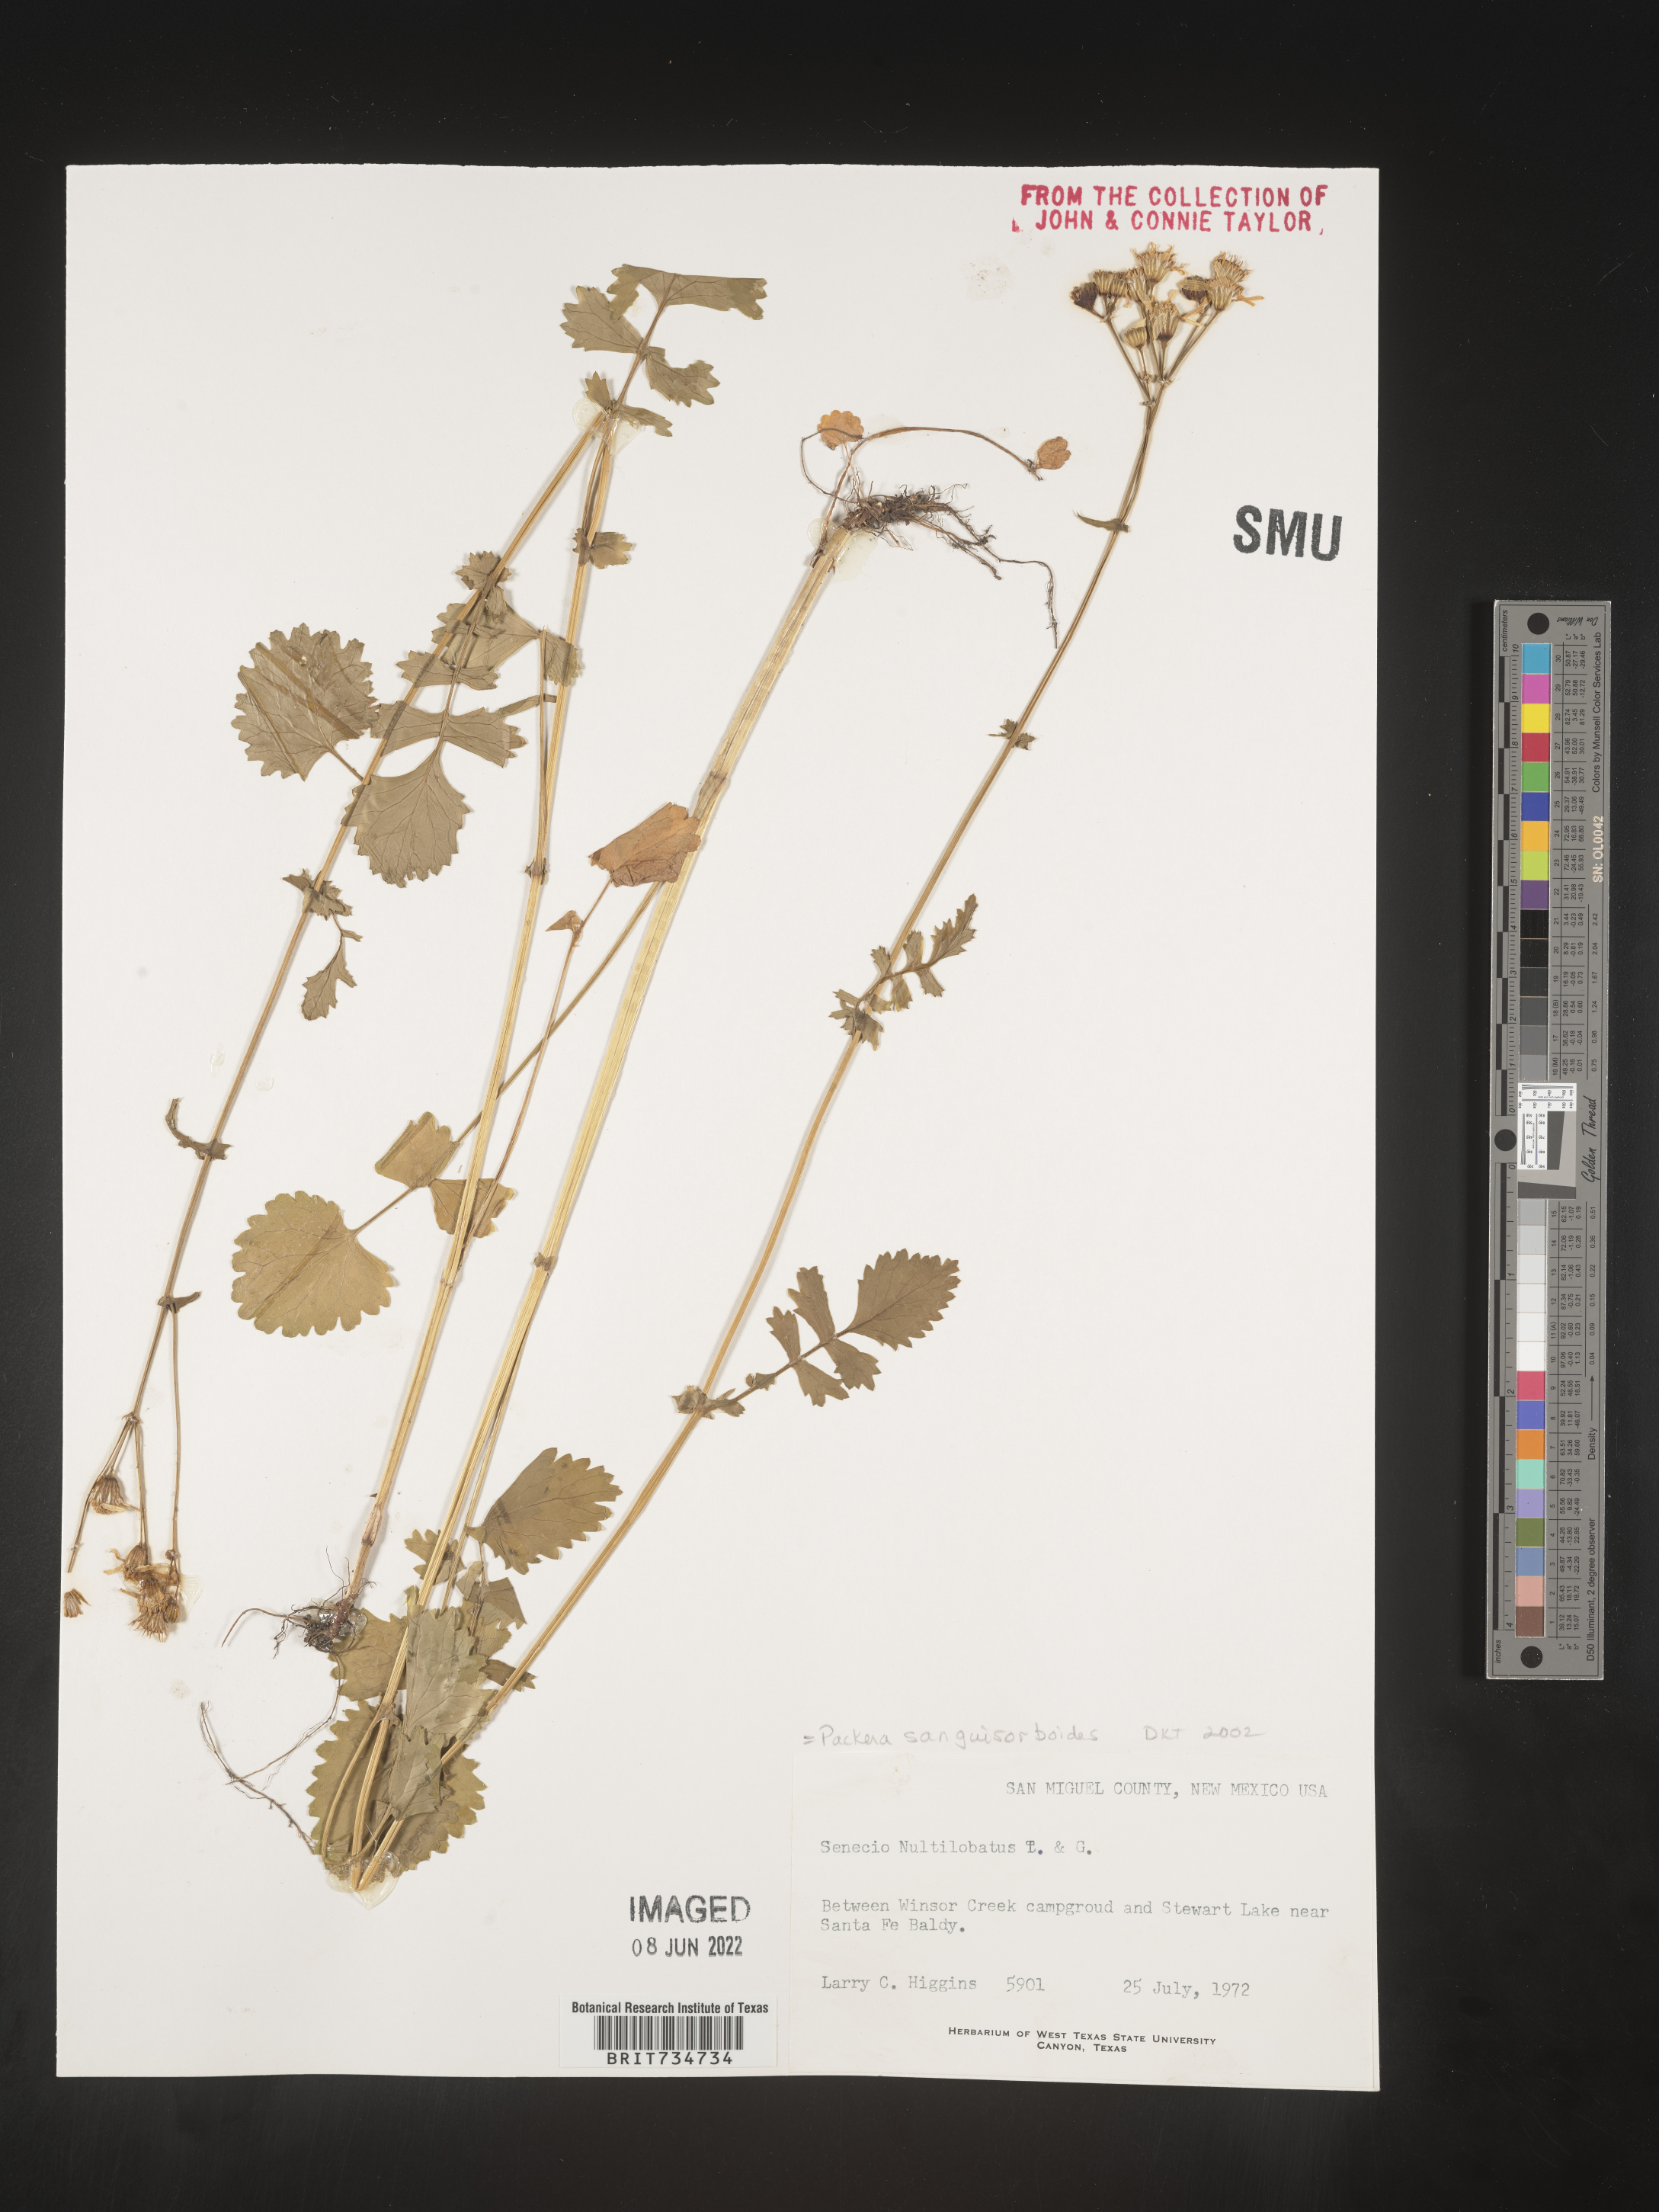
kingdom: Plantae
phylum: Tracheophyta
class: Magnoliopsida
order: Asterales
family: Asteraceae
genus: Packera
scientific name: Packera sanguisorboides
